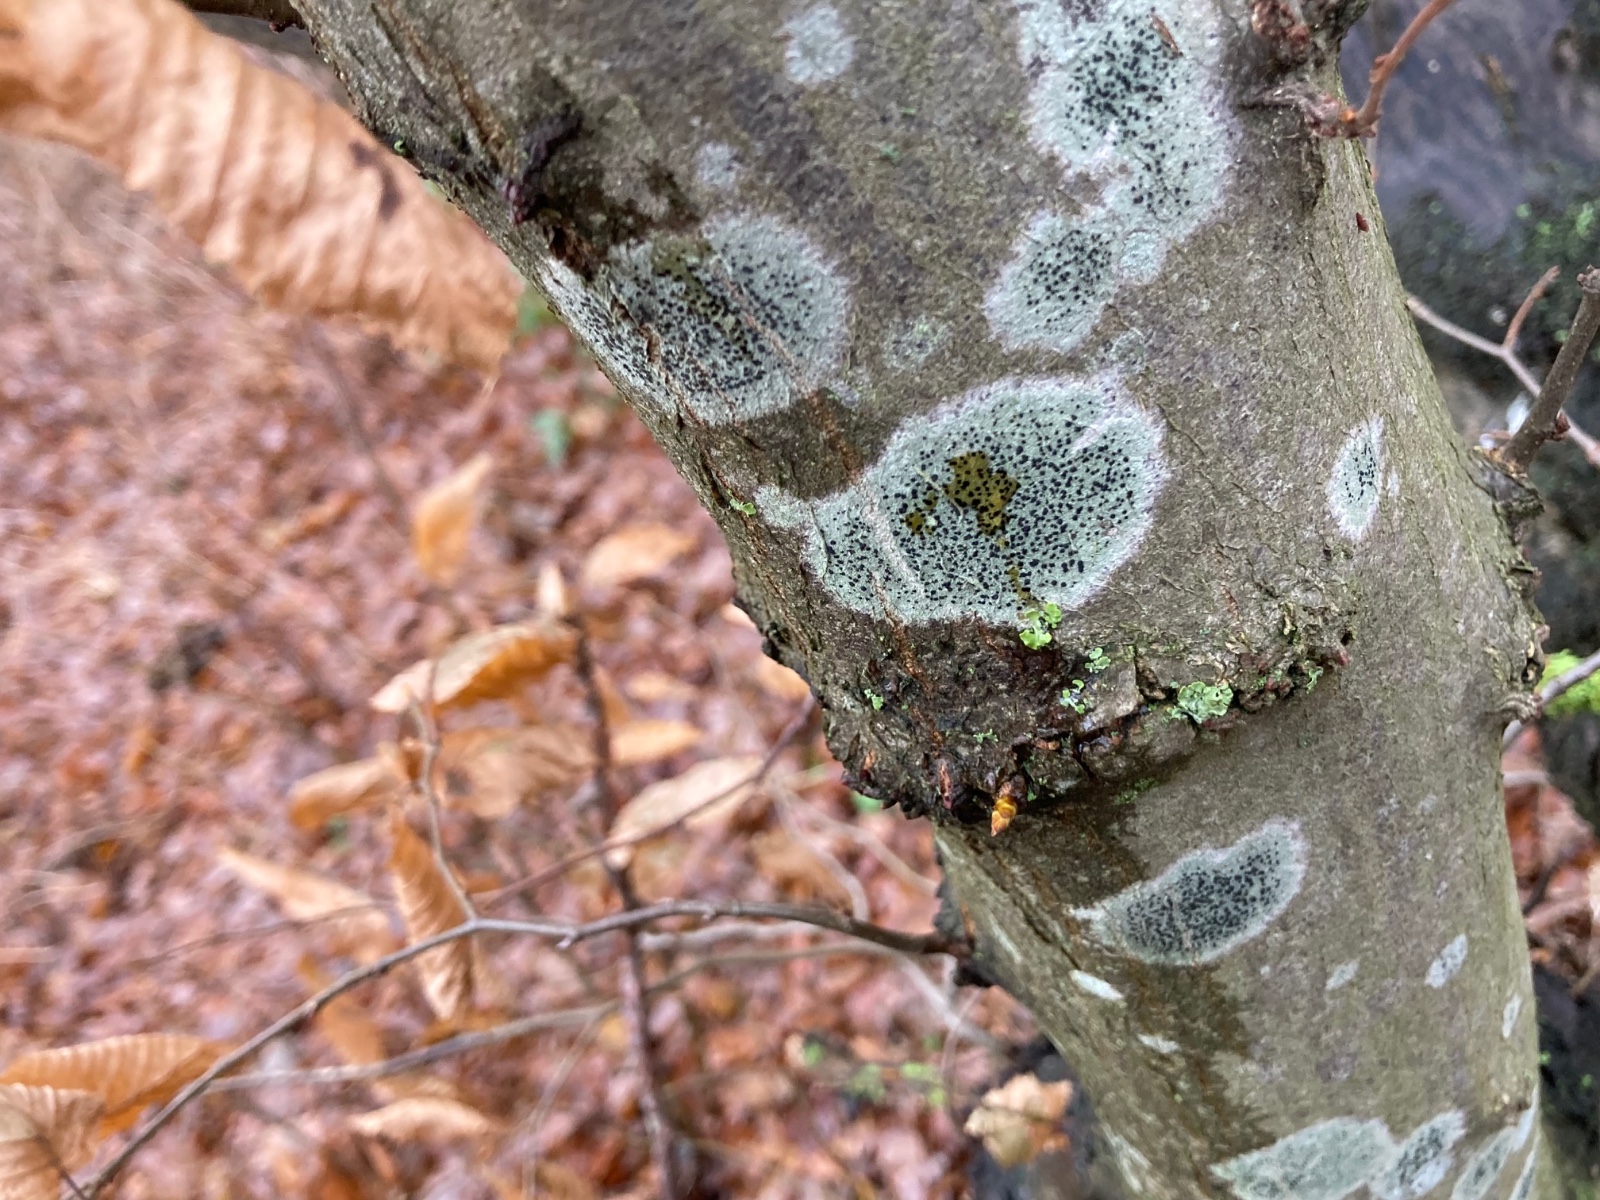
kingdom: Fungi
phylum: Ascomycota
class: Lecanoromycetes
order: Lecanorales
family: Lecanoraceae
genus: Lecidella
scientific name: Lecidella elaeochroma
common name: grågrøn skivelav
